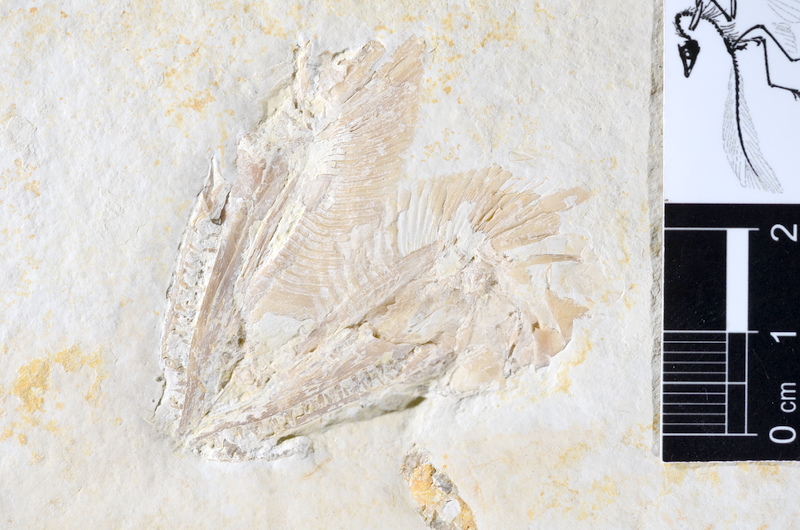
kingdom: Animalia
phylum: Chordata
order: Amiiformes
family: Caturidae
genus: Caturus
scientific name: Caturus
